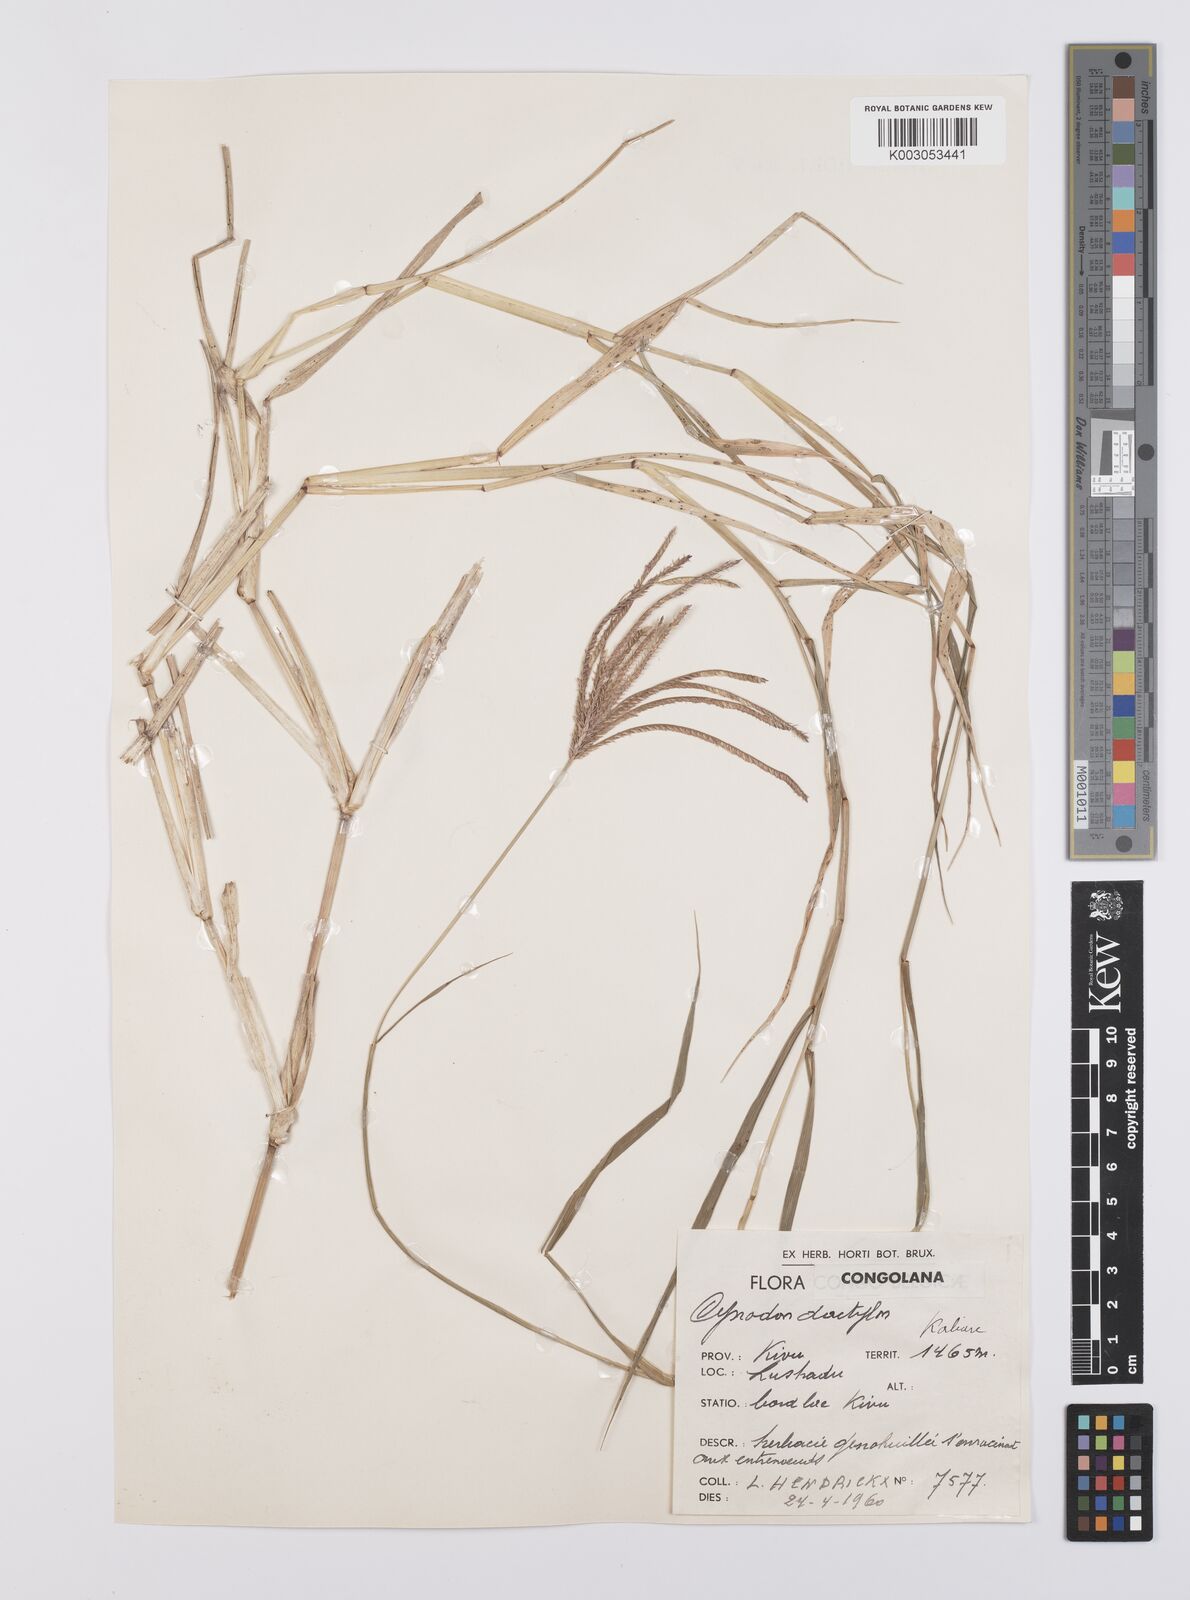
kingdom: Plantae
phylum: Tracheophyta
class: Liliopsida
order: Poales
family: Poaceae
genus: Cynodon
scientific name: Cynodon aethiopicus
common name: Ethiopian dogstooth grass
